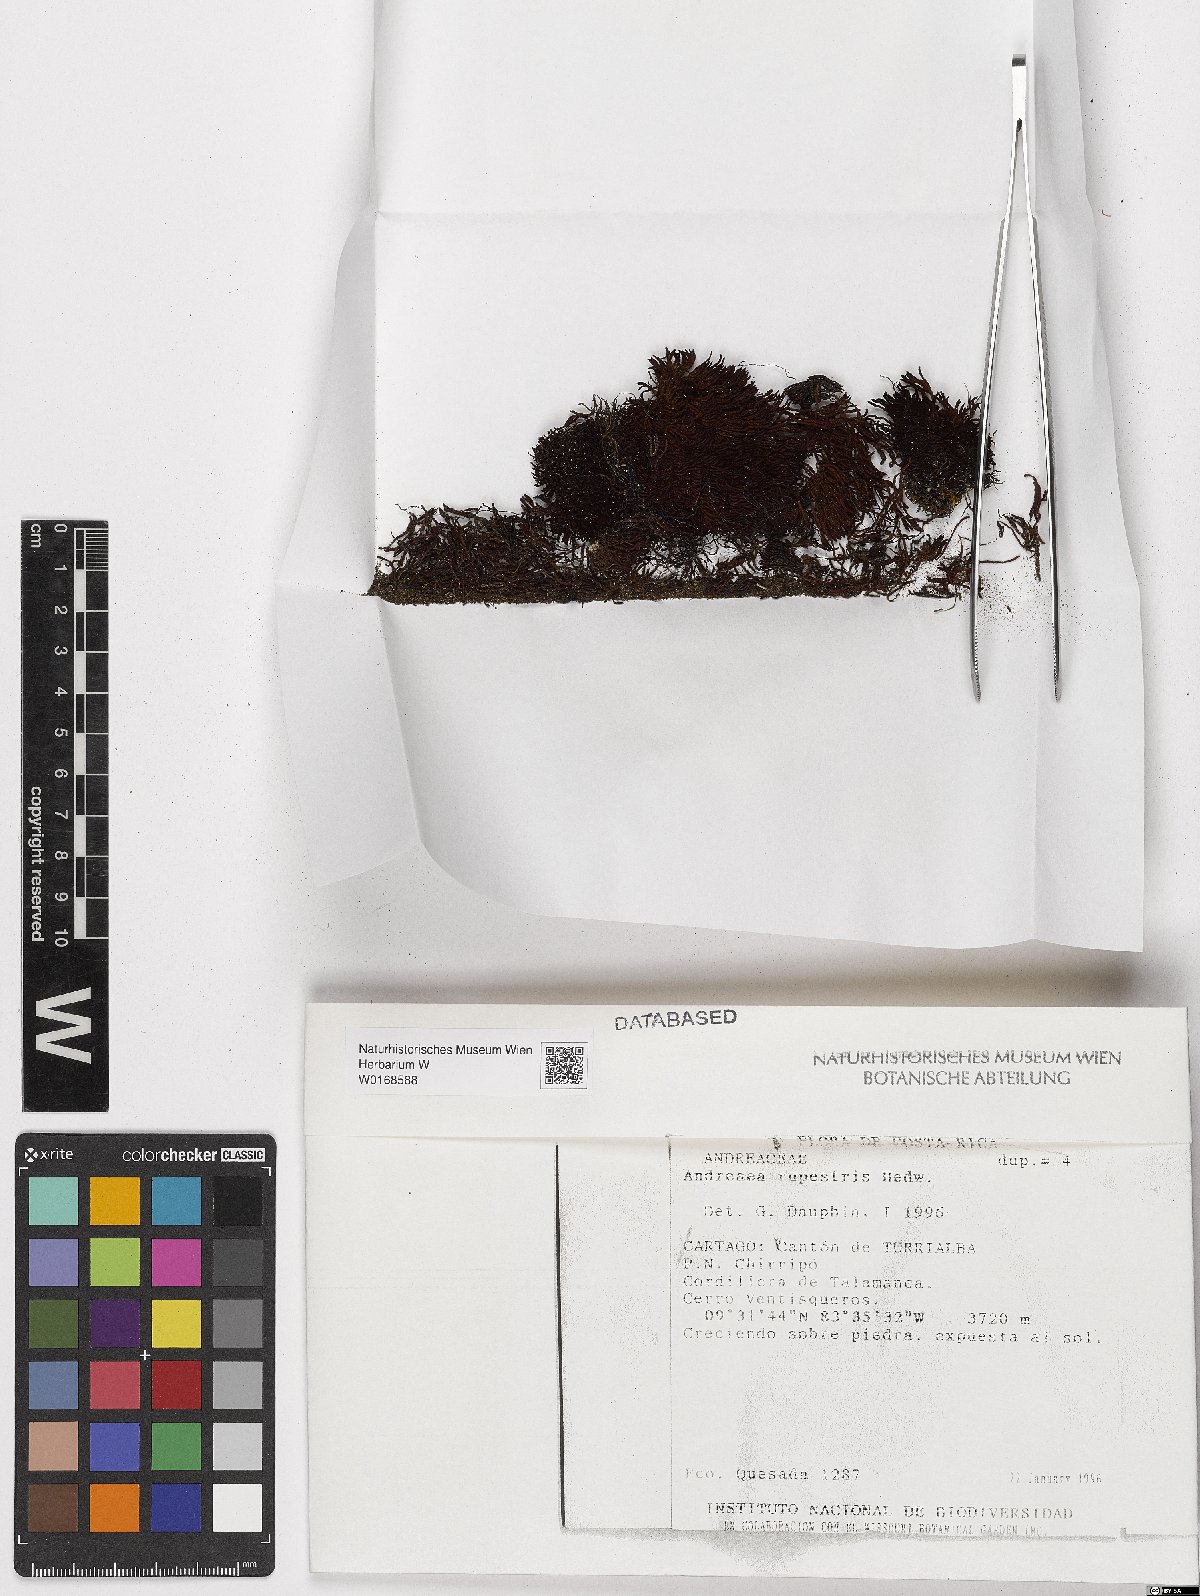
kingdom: Plantae
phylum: Bryophyta
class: Andreaeopsida
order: Andreaeales
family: Andreaeaceae
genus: Andreaea
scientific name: Andreaea rupestris
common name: Black rock moss
